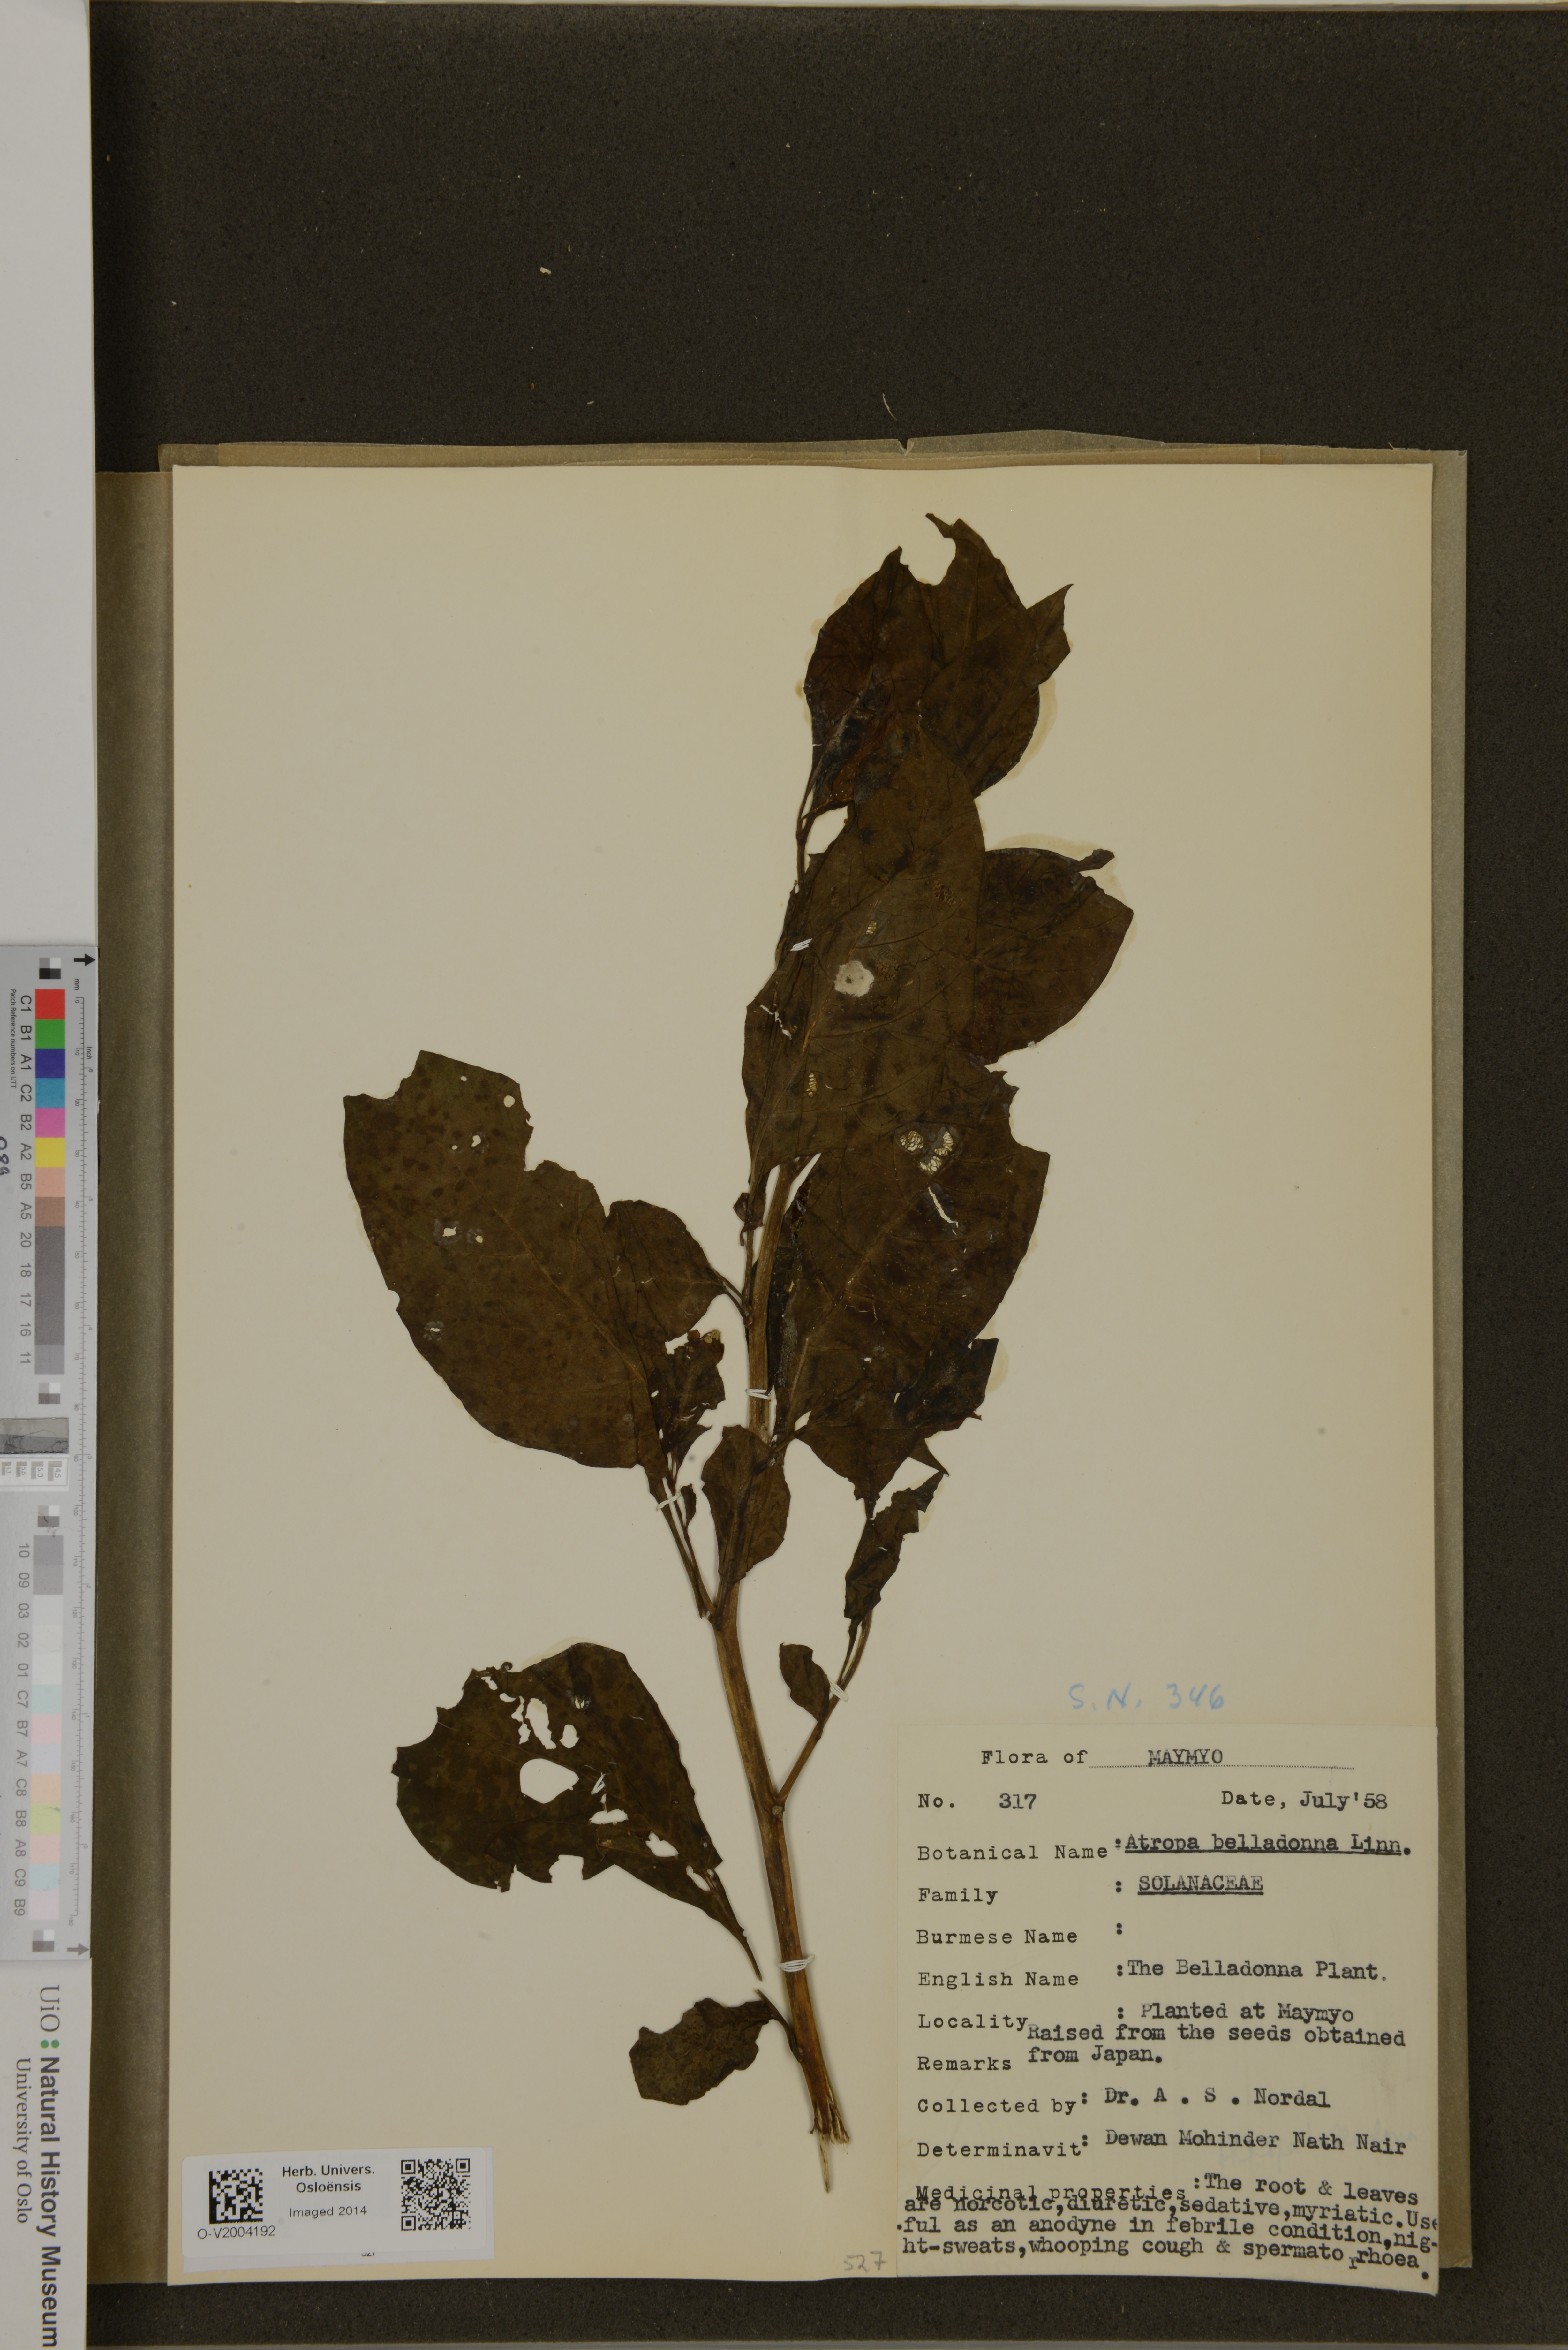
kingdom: Plantae
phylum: Tracheophyta
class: Magnoliopsida
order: Solanales
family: Solanaceae
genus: Atropa
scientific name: Atropa belladonna
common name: Deadly nightshade
